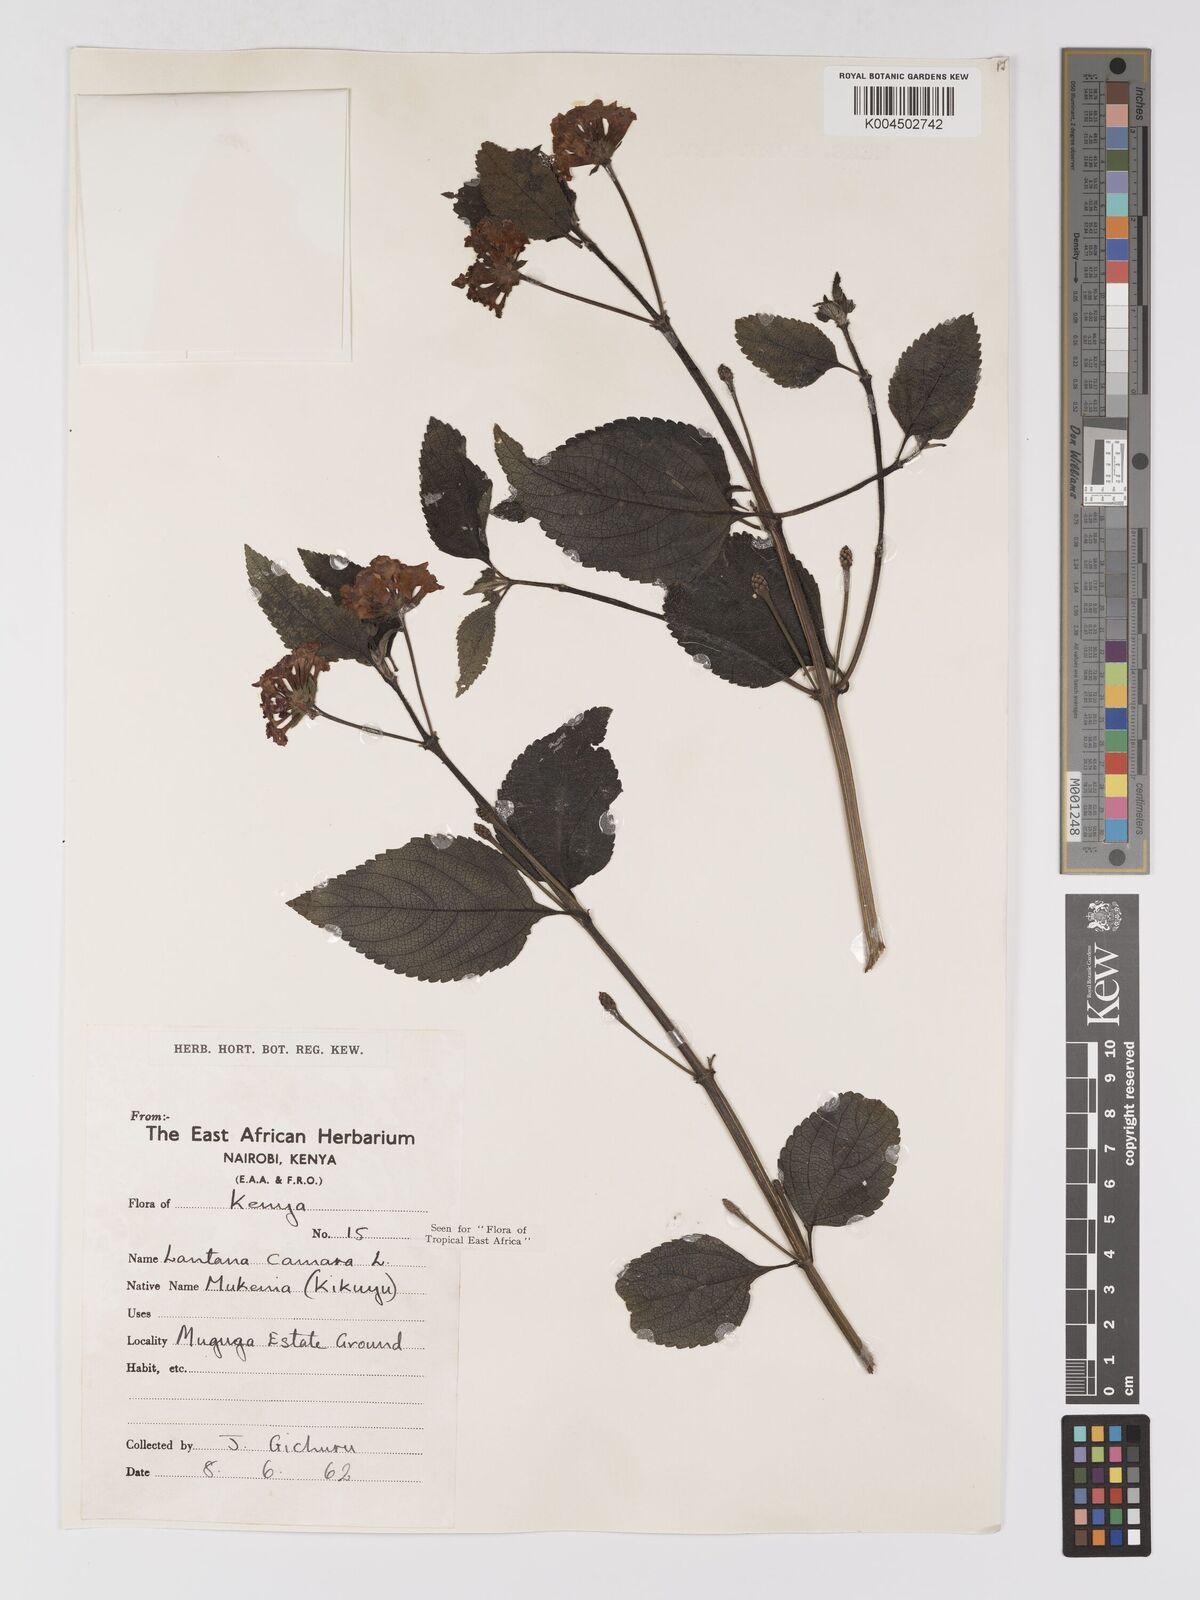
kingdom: Plantae
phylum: Tracheophyta
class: Magnoliopsida
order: Lamiales
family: Verbenaceae
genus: Lantana
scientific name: Lantana camara
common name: Lantana
